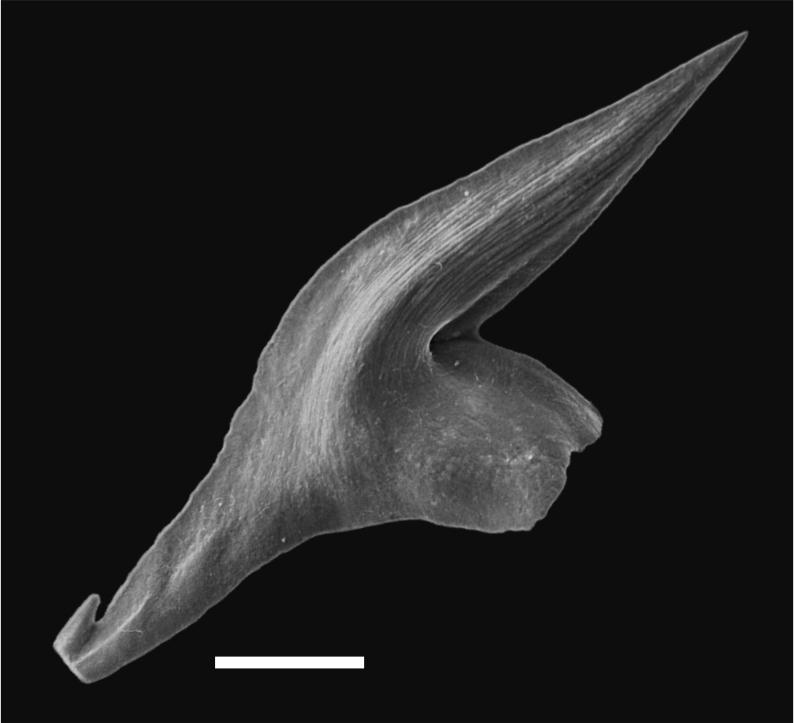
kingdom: Animalia
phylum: Chordata
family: Balognathidae
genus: Baltoniodus
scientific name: Baltoniodus
